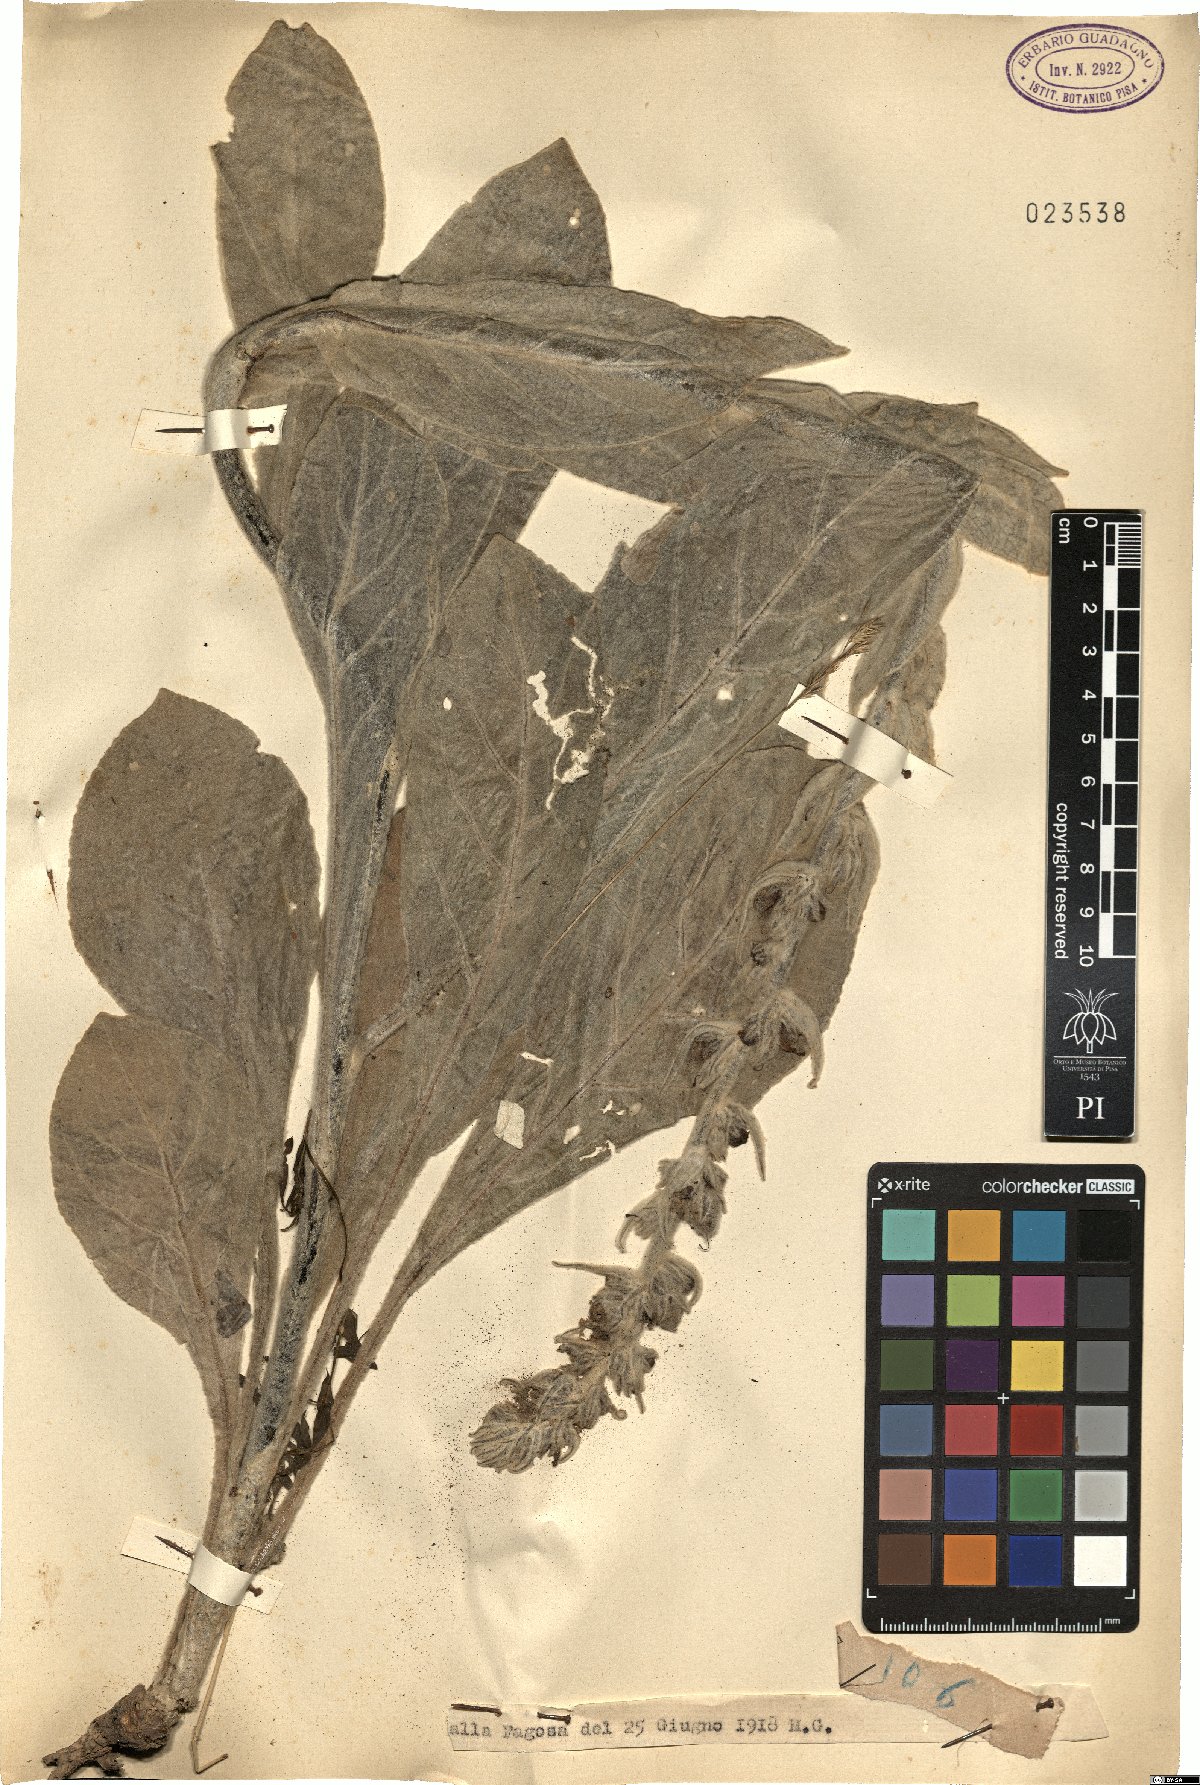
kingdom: Plantae
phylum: Tracheophyta
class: Magnoliopsida
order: Lamiales
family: Scrophulariaceae
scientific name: Scrophulariaceae
